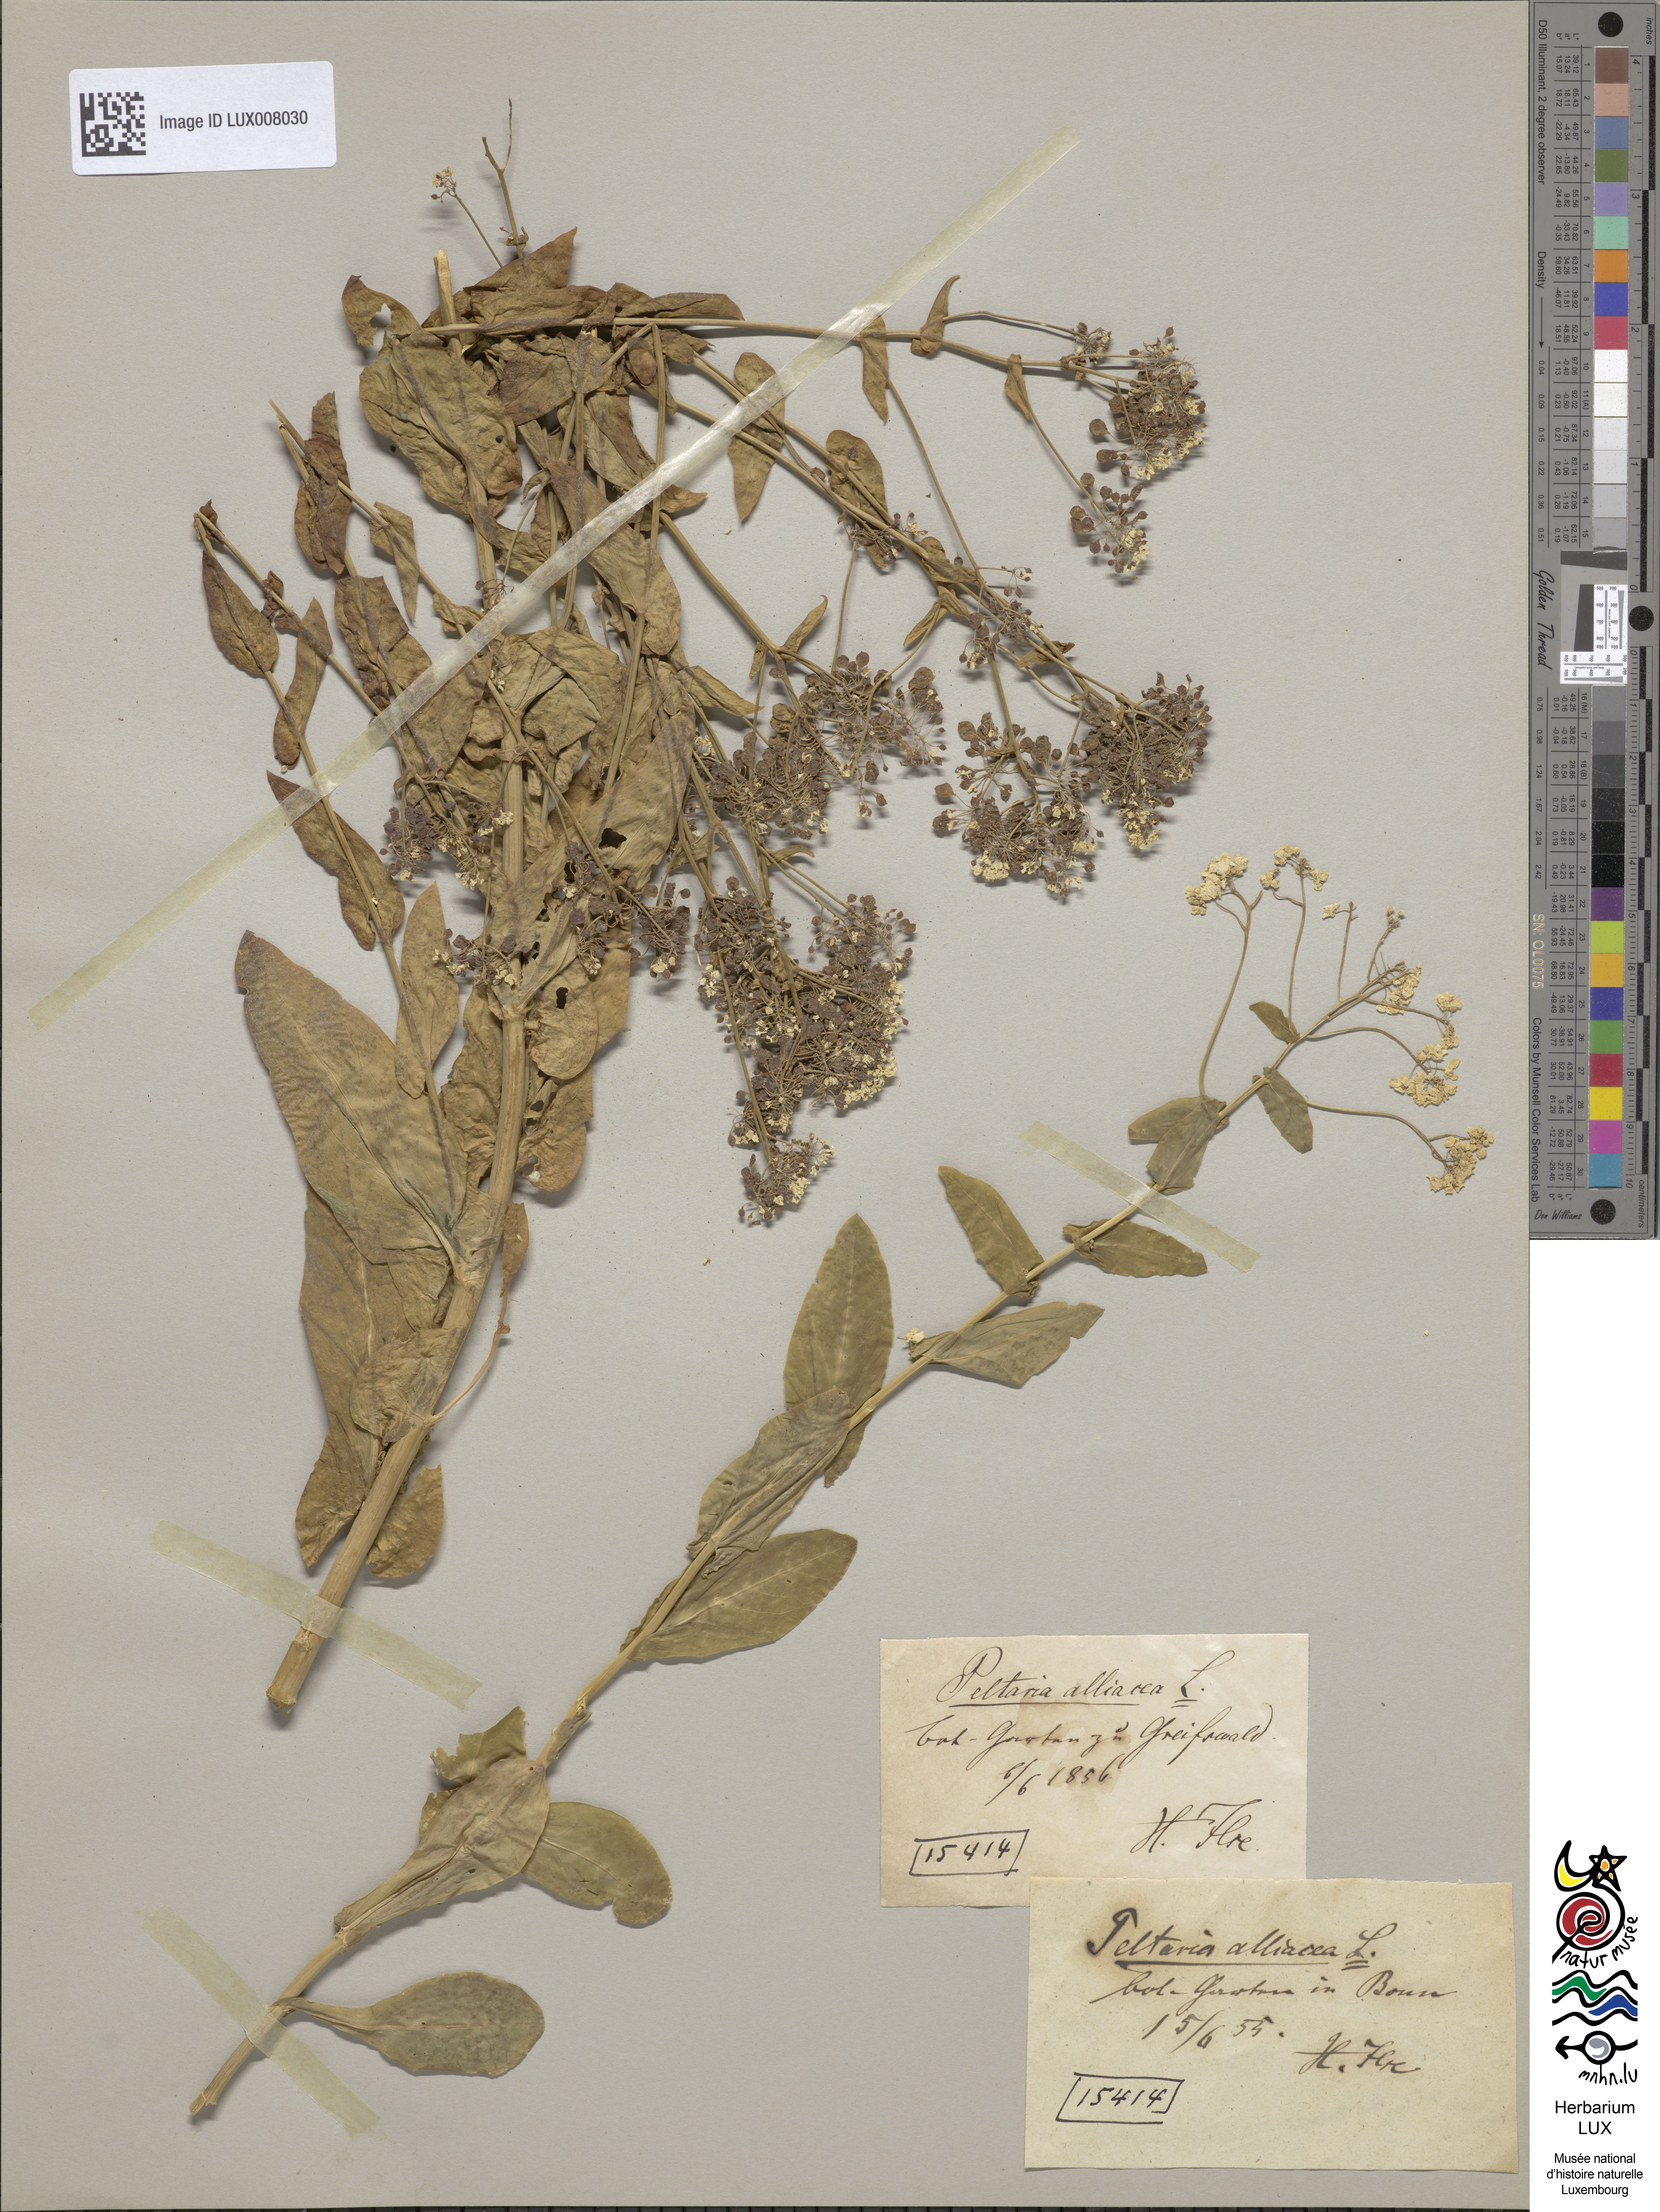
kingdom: Plantae
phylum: Tracheophyta
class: Magnoliopsida
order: Brassicales
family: Brassicaceae
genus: Peltaria
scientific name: Peltaria alliacea
